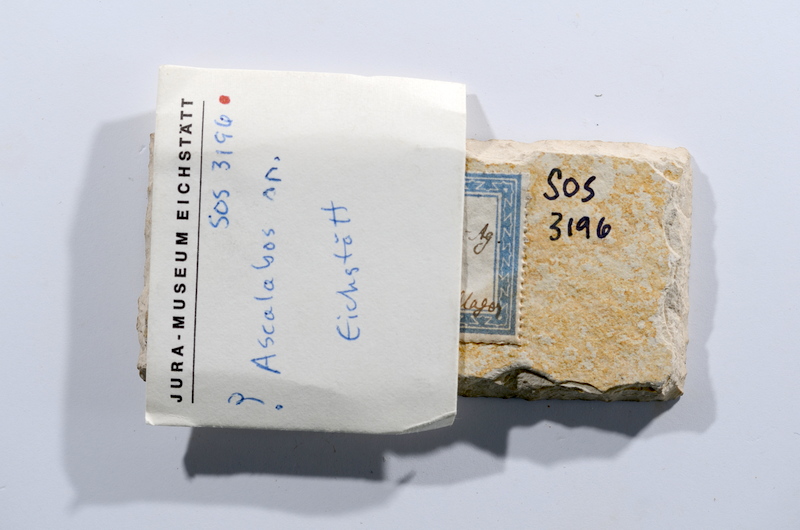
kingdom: Animalia
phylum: Chordata
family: Ascalaboidae
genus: Ascalabos
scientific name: Ascalabos voithii
